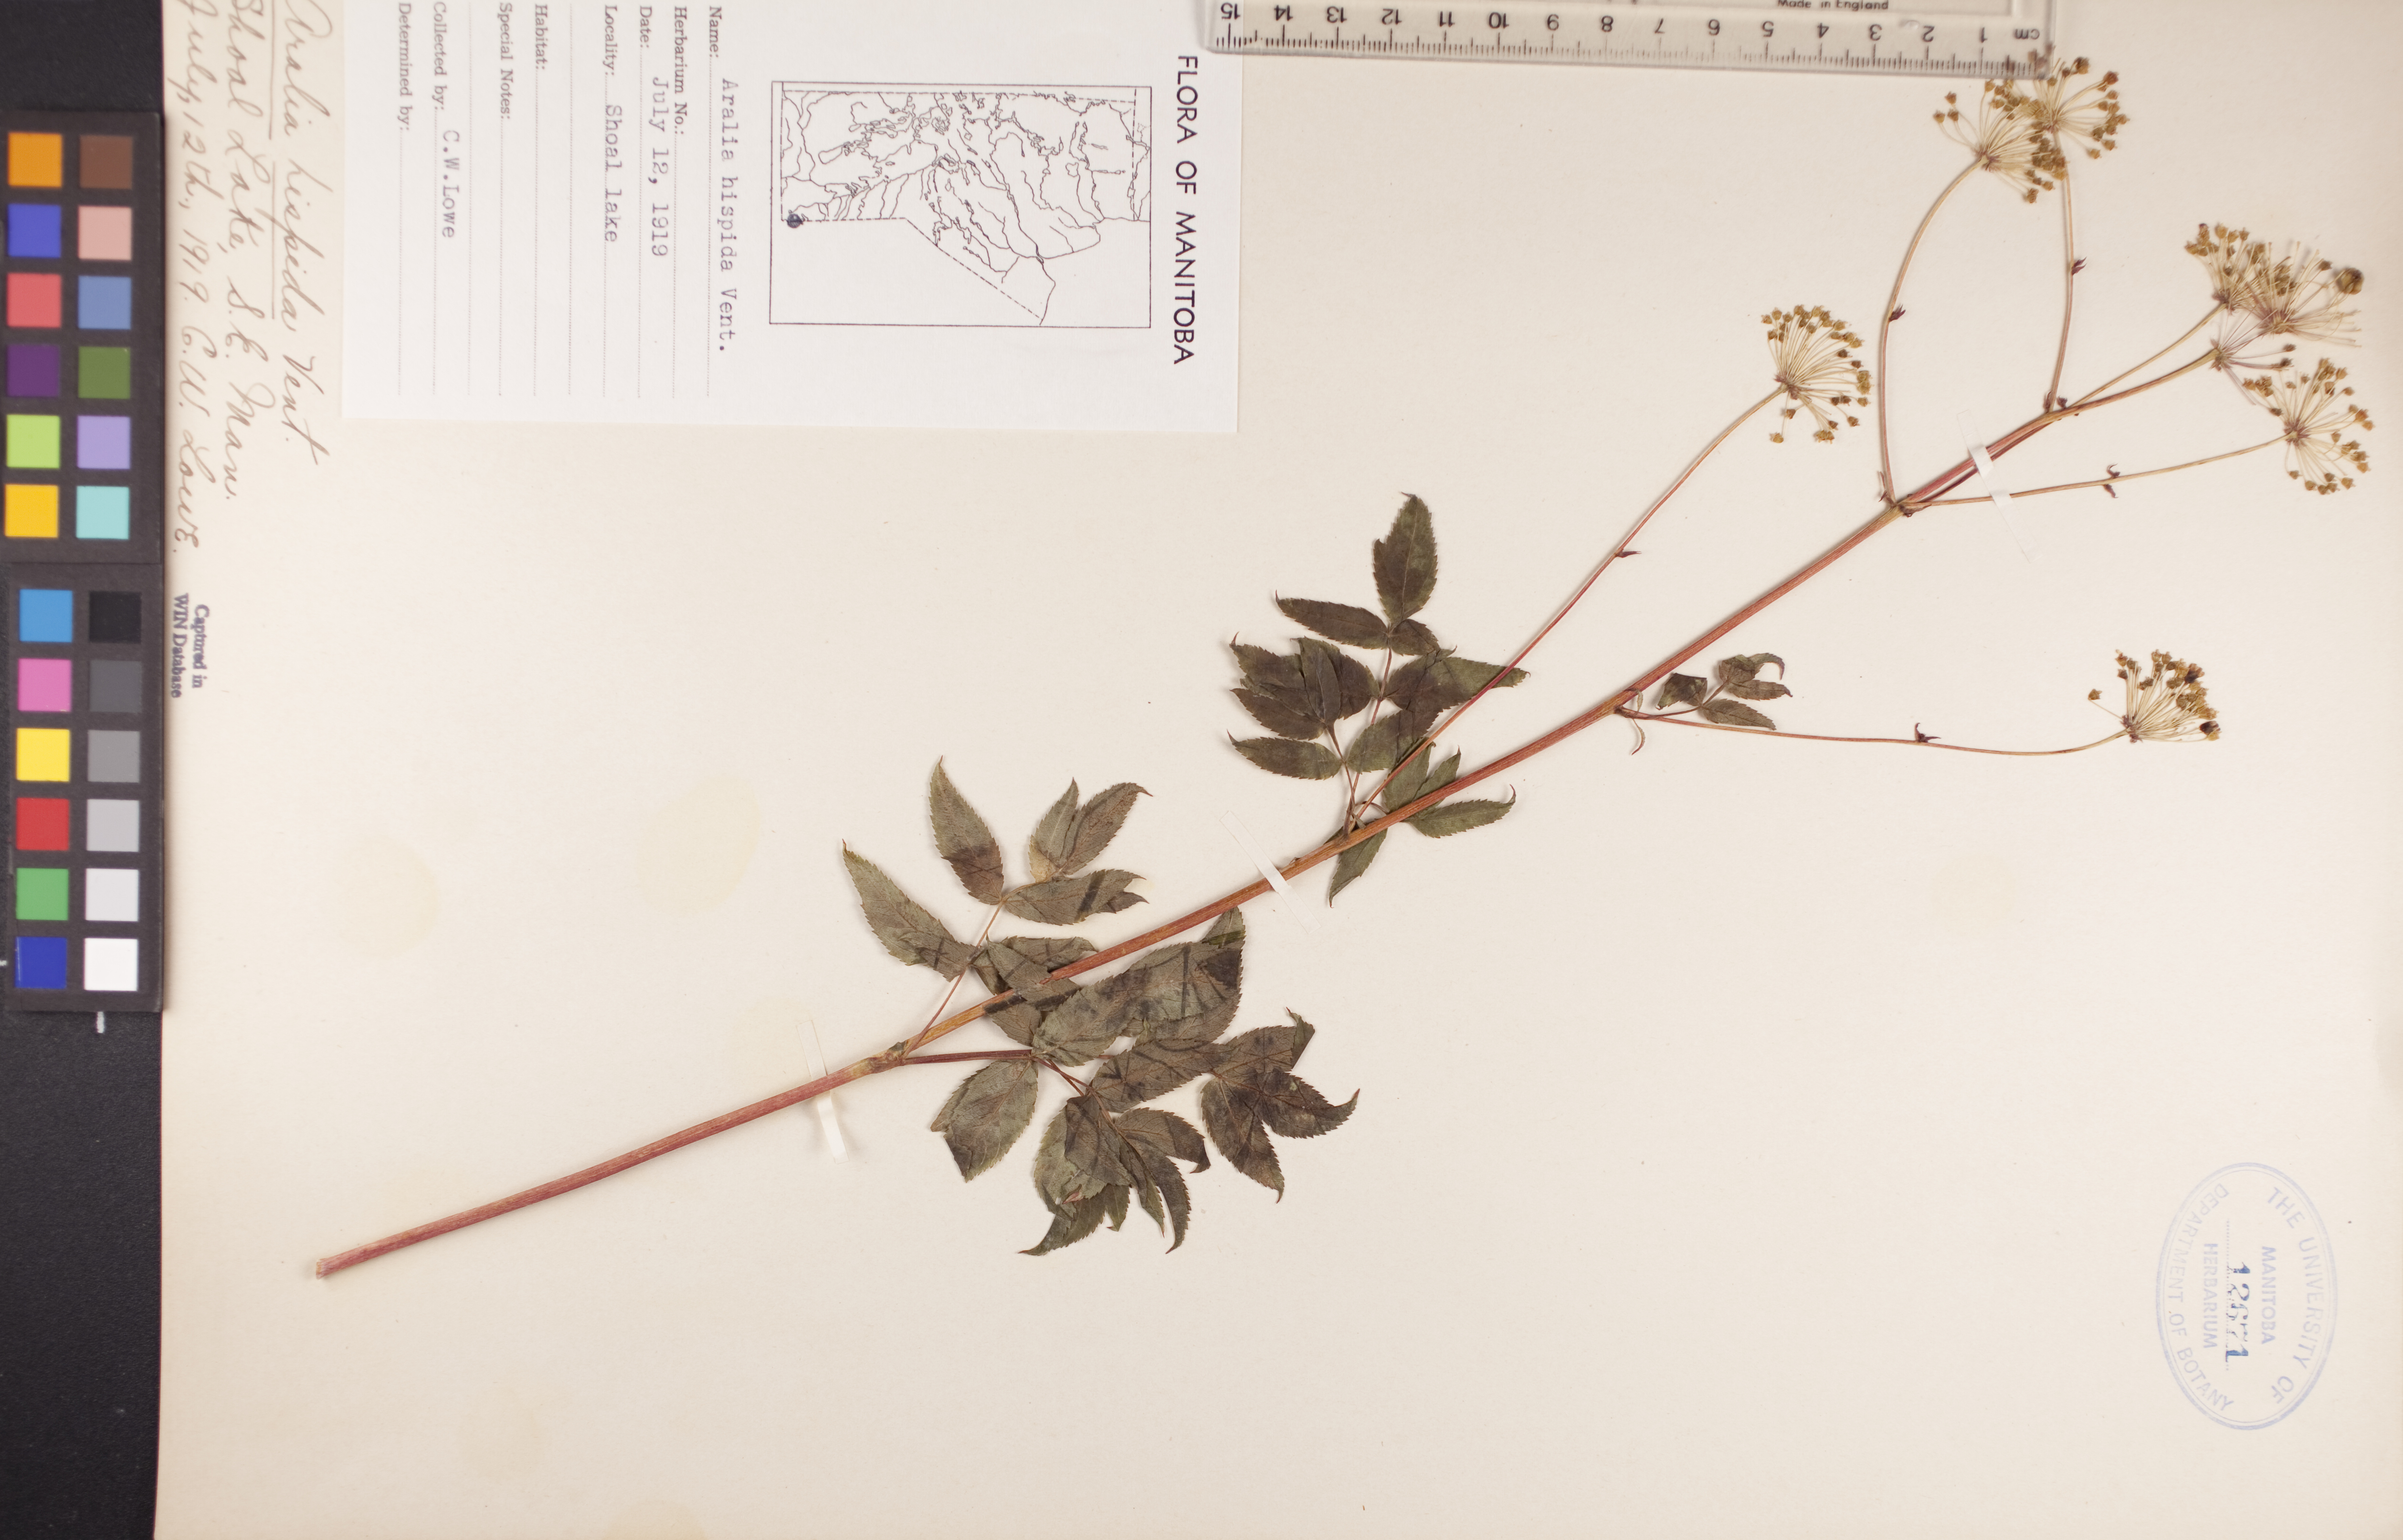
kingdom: Plantae
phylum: Tracheophyta
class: Magnoliopsida
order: Apiales
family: Araliaceae
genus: Aralia
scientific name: Aralia hispida
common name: Bristly sarsaparilla
